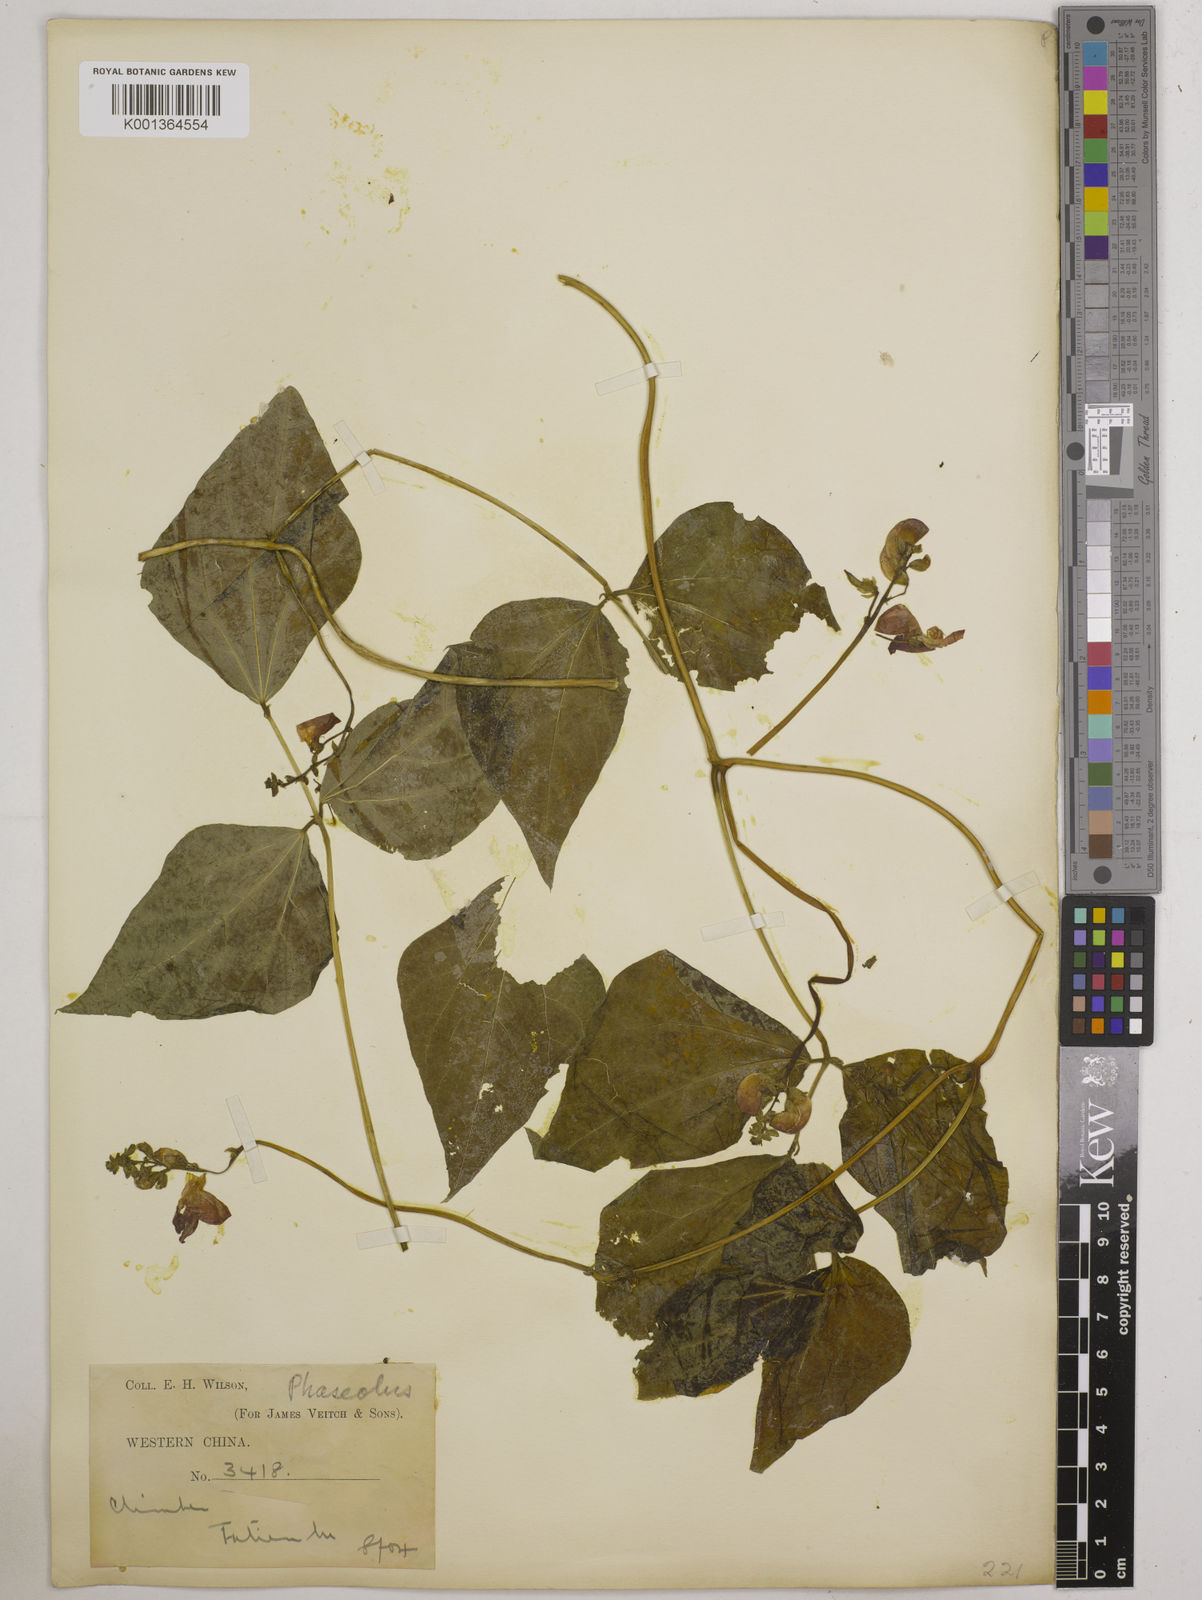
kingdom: Plantae
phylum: Tracheophyta
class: Magnoliopsida
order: Fabales
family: Fabaceae
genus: Phaseolus
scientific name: Phaseolus coccineus
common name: Runner bean
